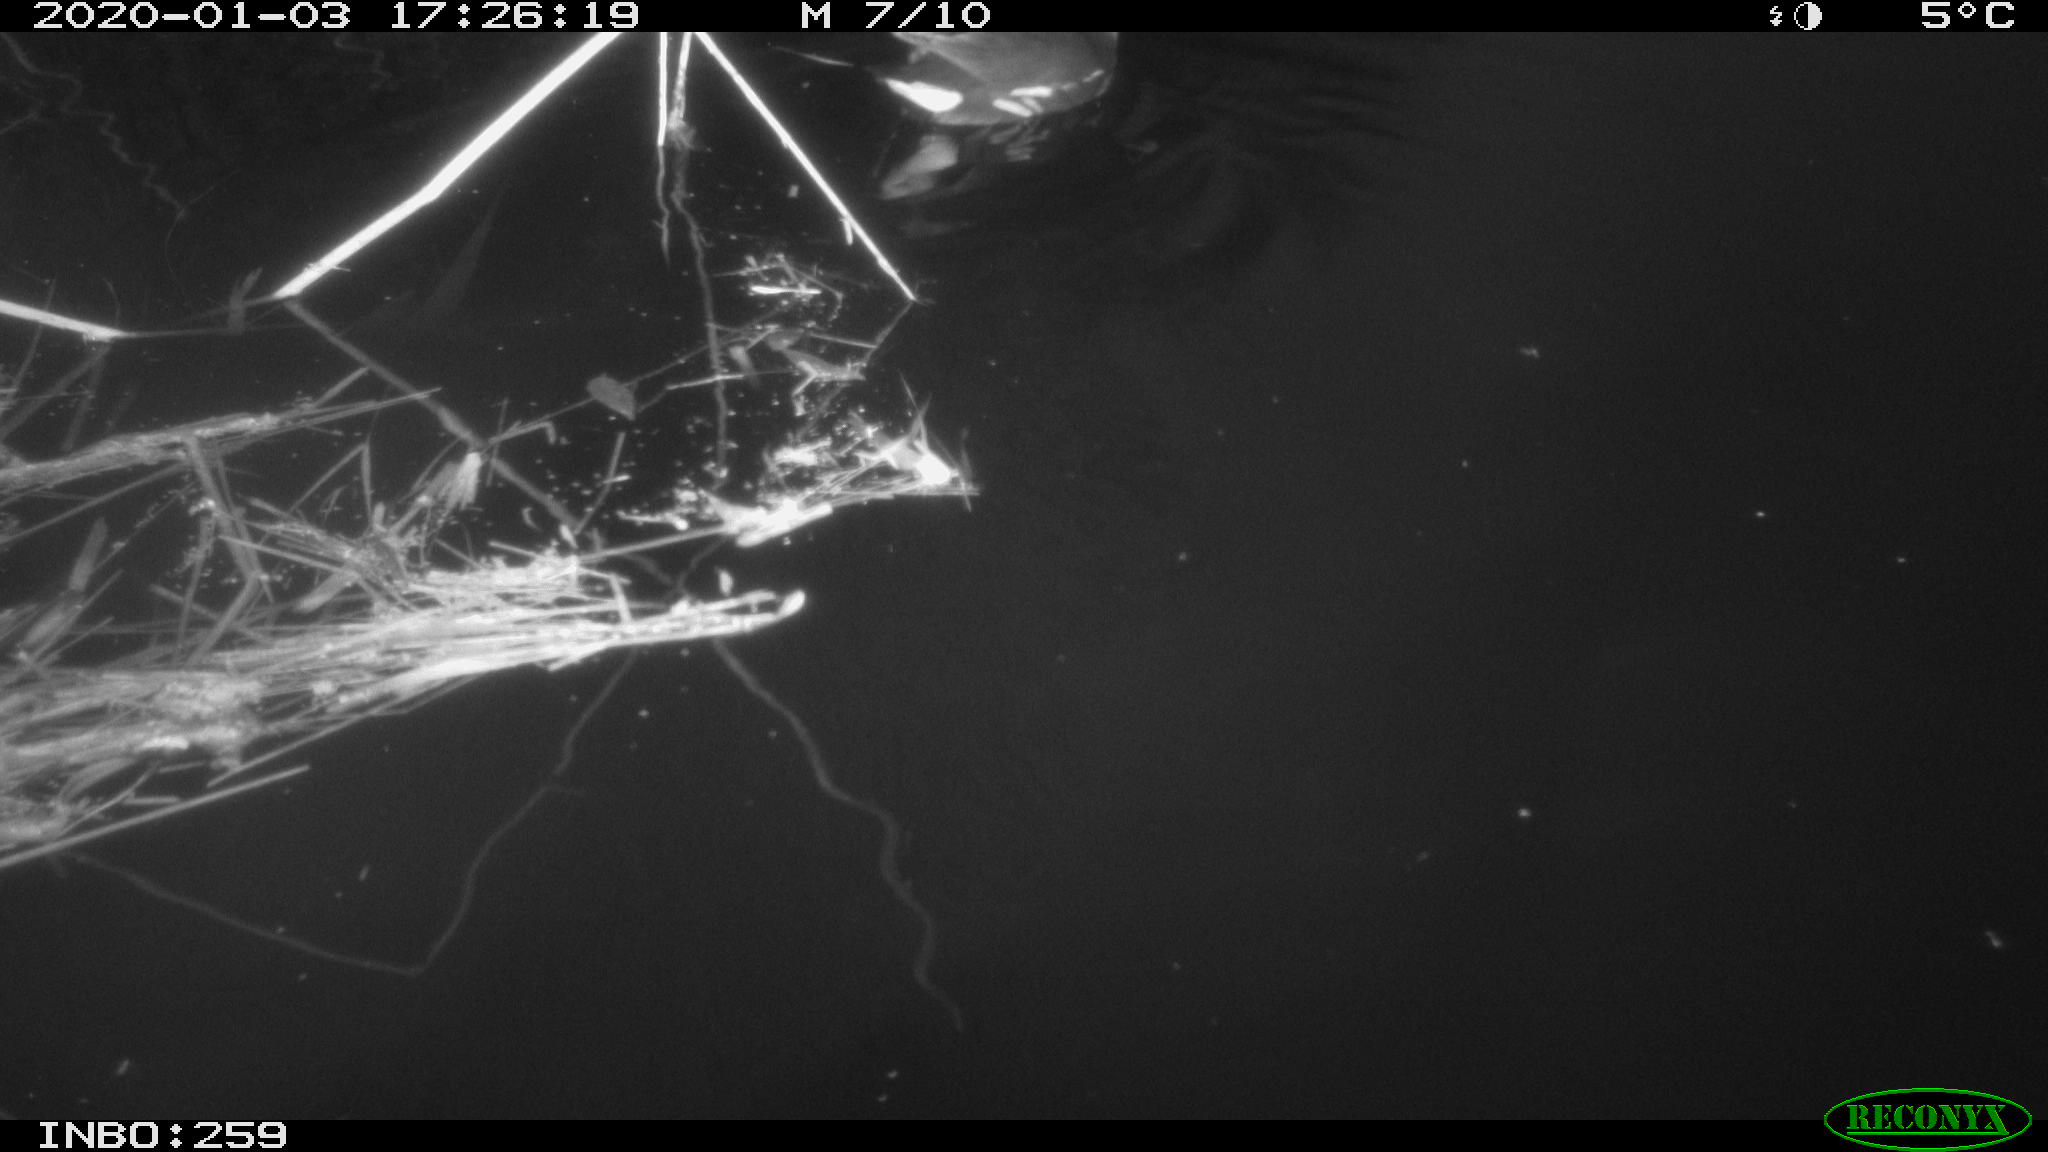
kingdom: Animalia
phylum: Chordata
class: Aves
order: Gruiformes
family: Rallidae
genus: Gallinula
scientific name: Gallinula chloropus
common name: Common moorhen
